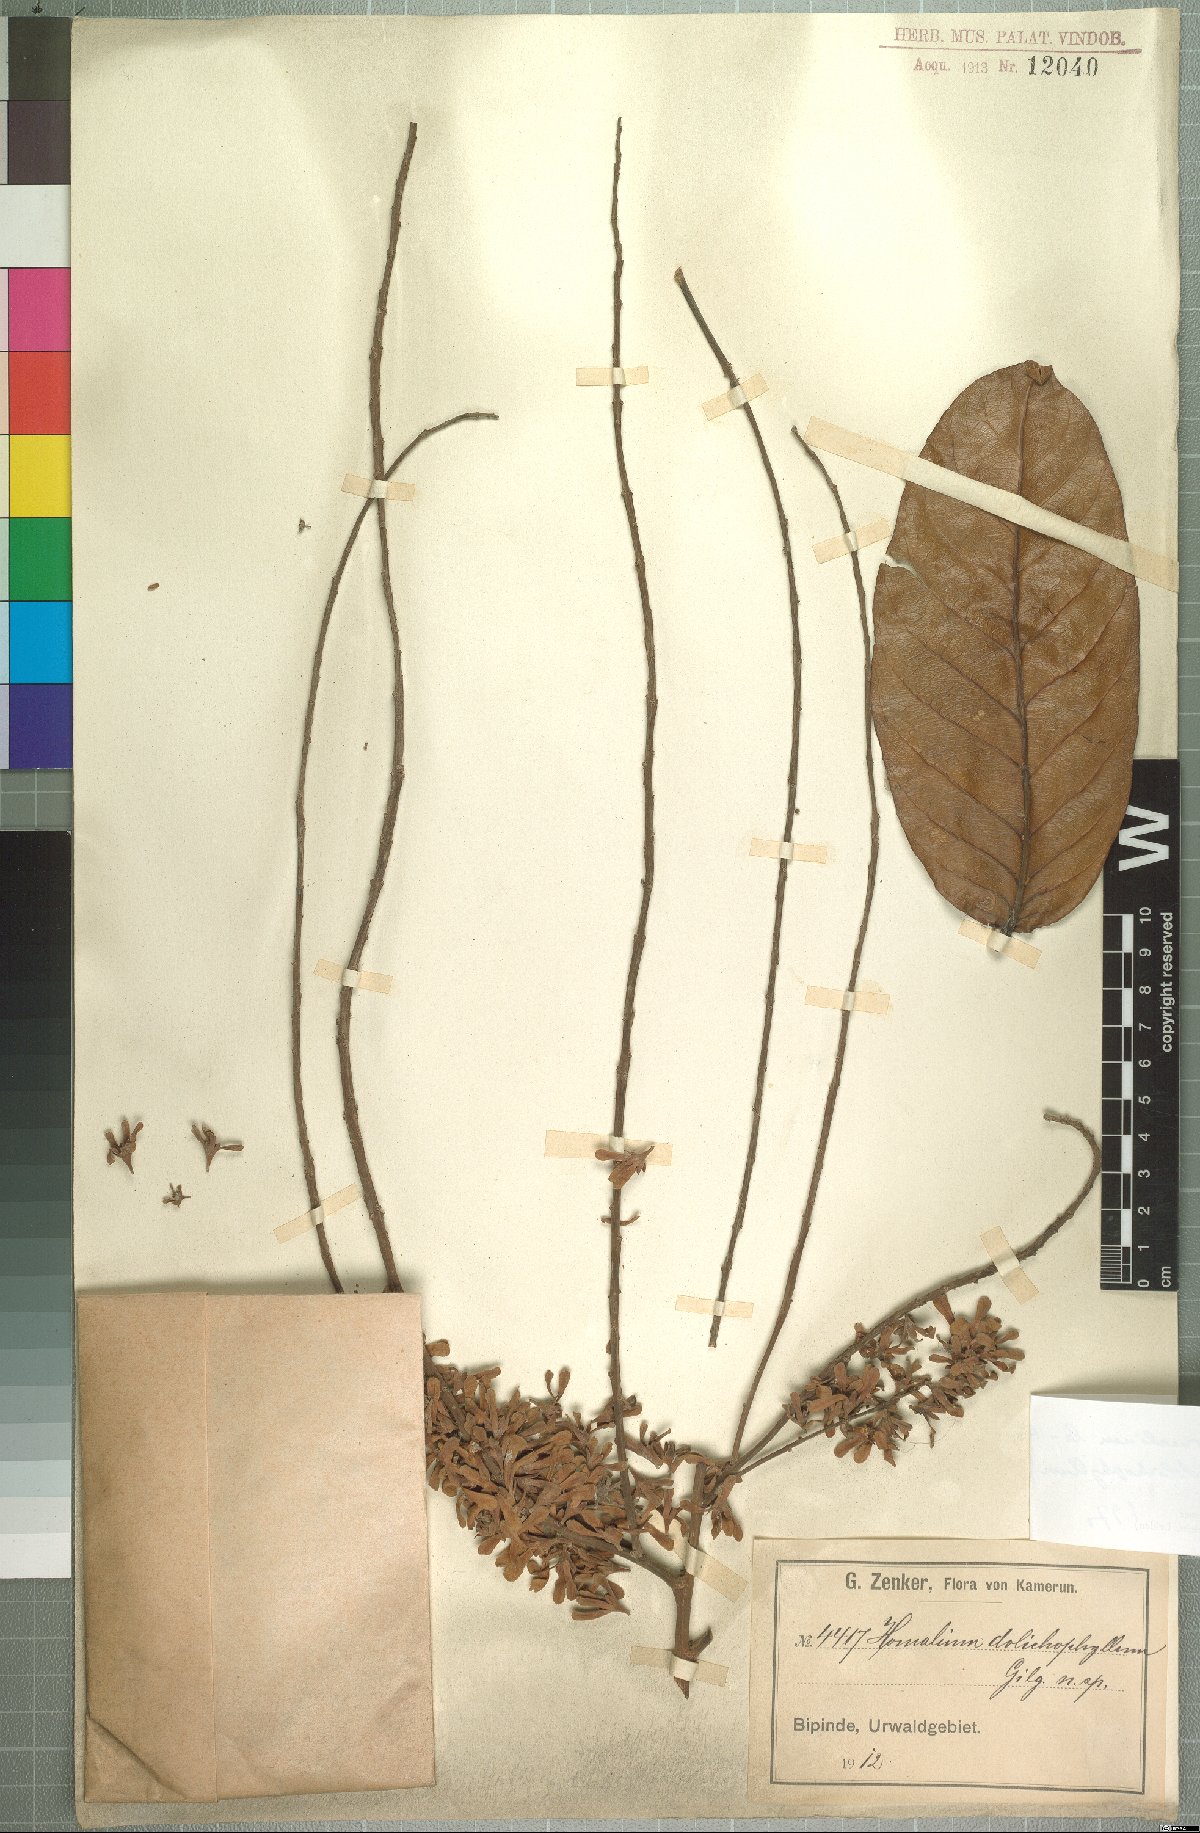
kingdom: Plantae
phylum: Tracheophyta
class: Magnoliopsida
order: Malpighiales
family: Salicaceae
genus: Homalium
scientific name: Homalium letestui
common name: African homalium
